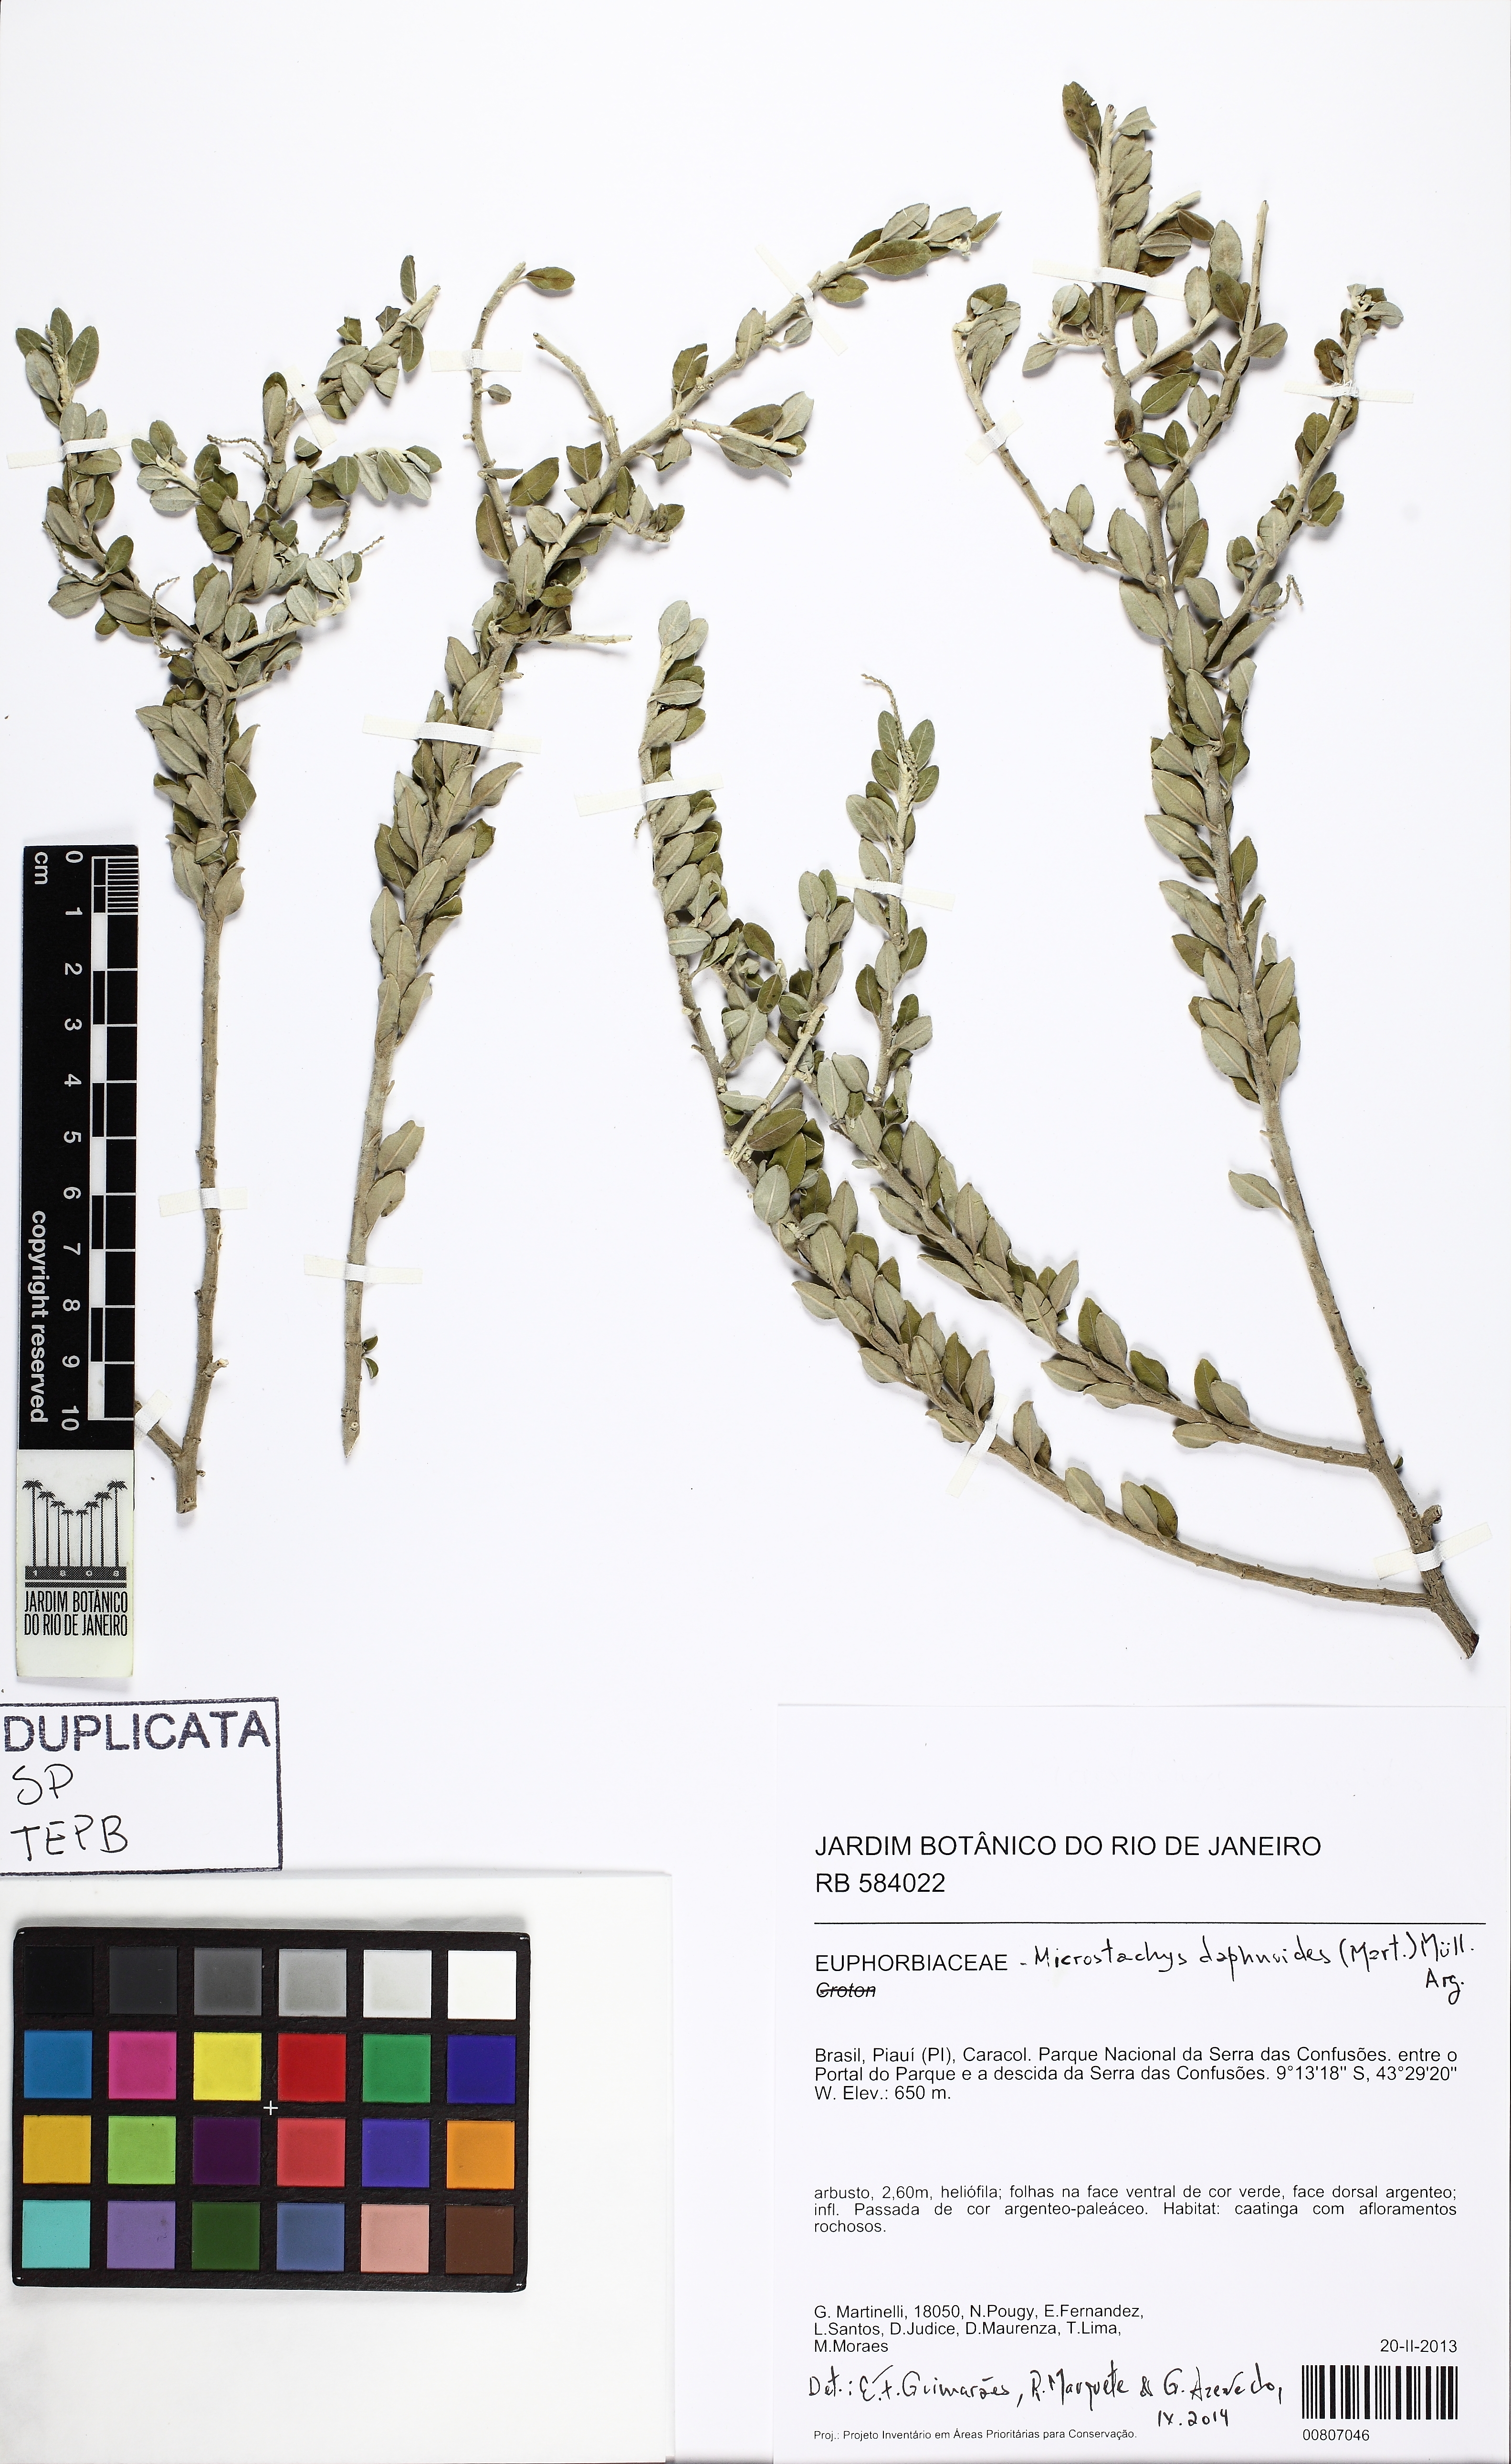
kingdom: Plantae
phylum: Tracheophyta
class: Magnoliopsida
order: Malpighiales
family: Euphorbiaceae
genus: Microstachys
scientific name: Microstachys daphnoides
